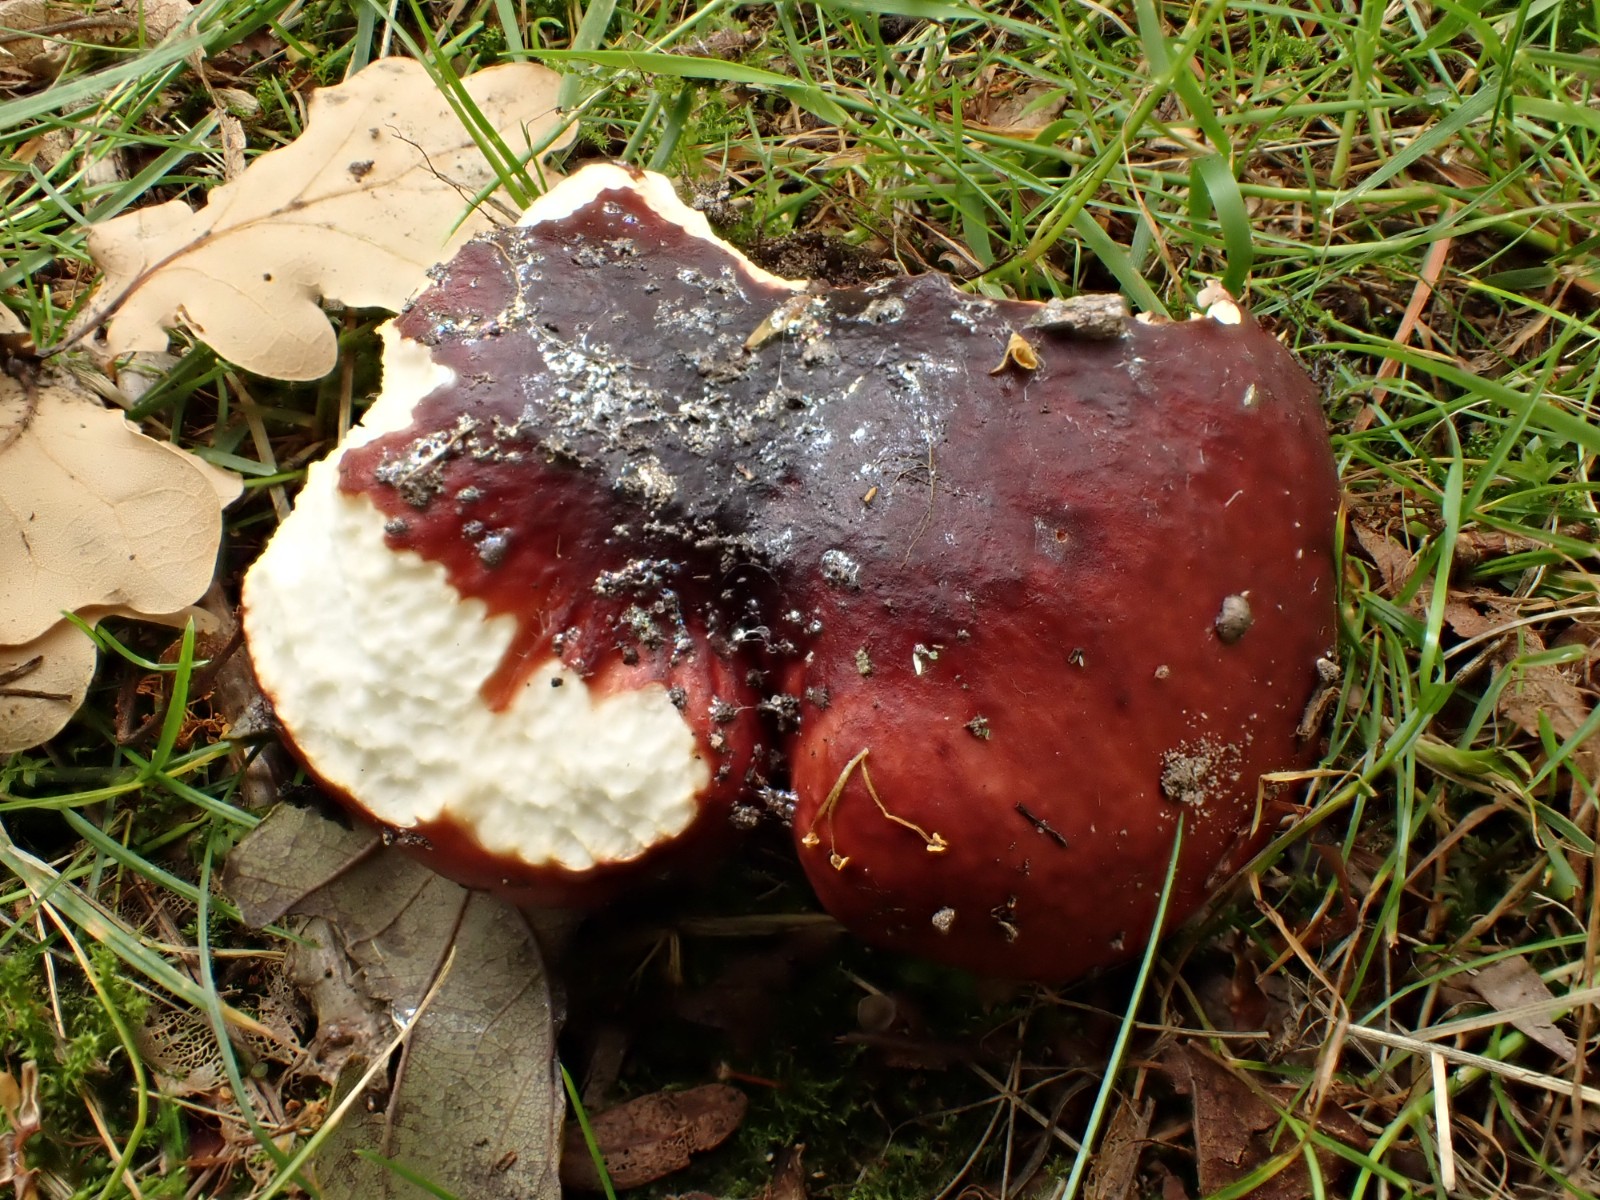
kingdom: Fungi
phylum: Basidiomycota
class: Agaricomycetes
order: Russulales
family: Russulaceae
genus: Russula
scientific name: Russula melliolens
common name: honning-skørhat
